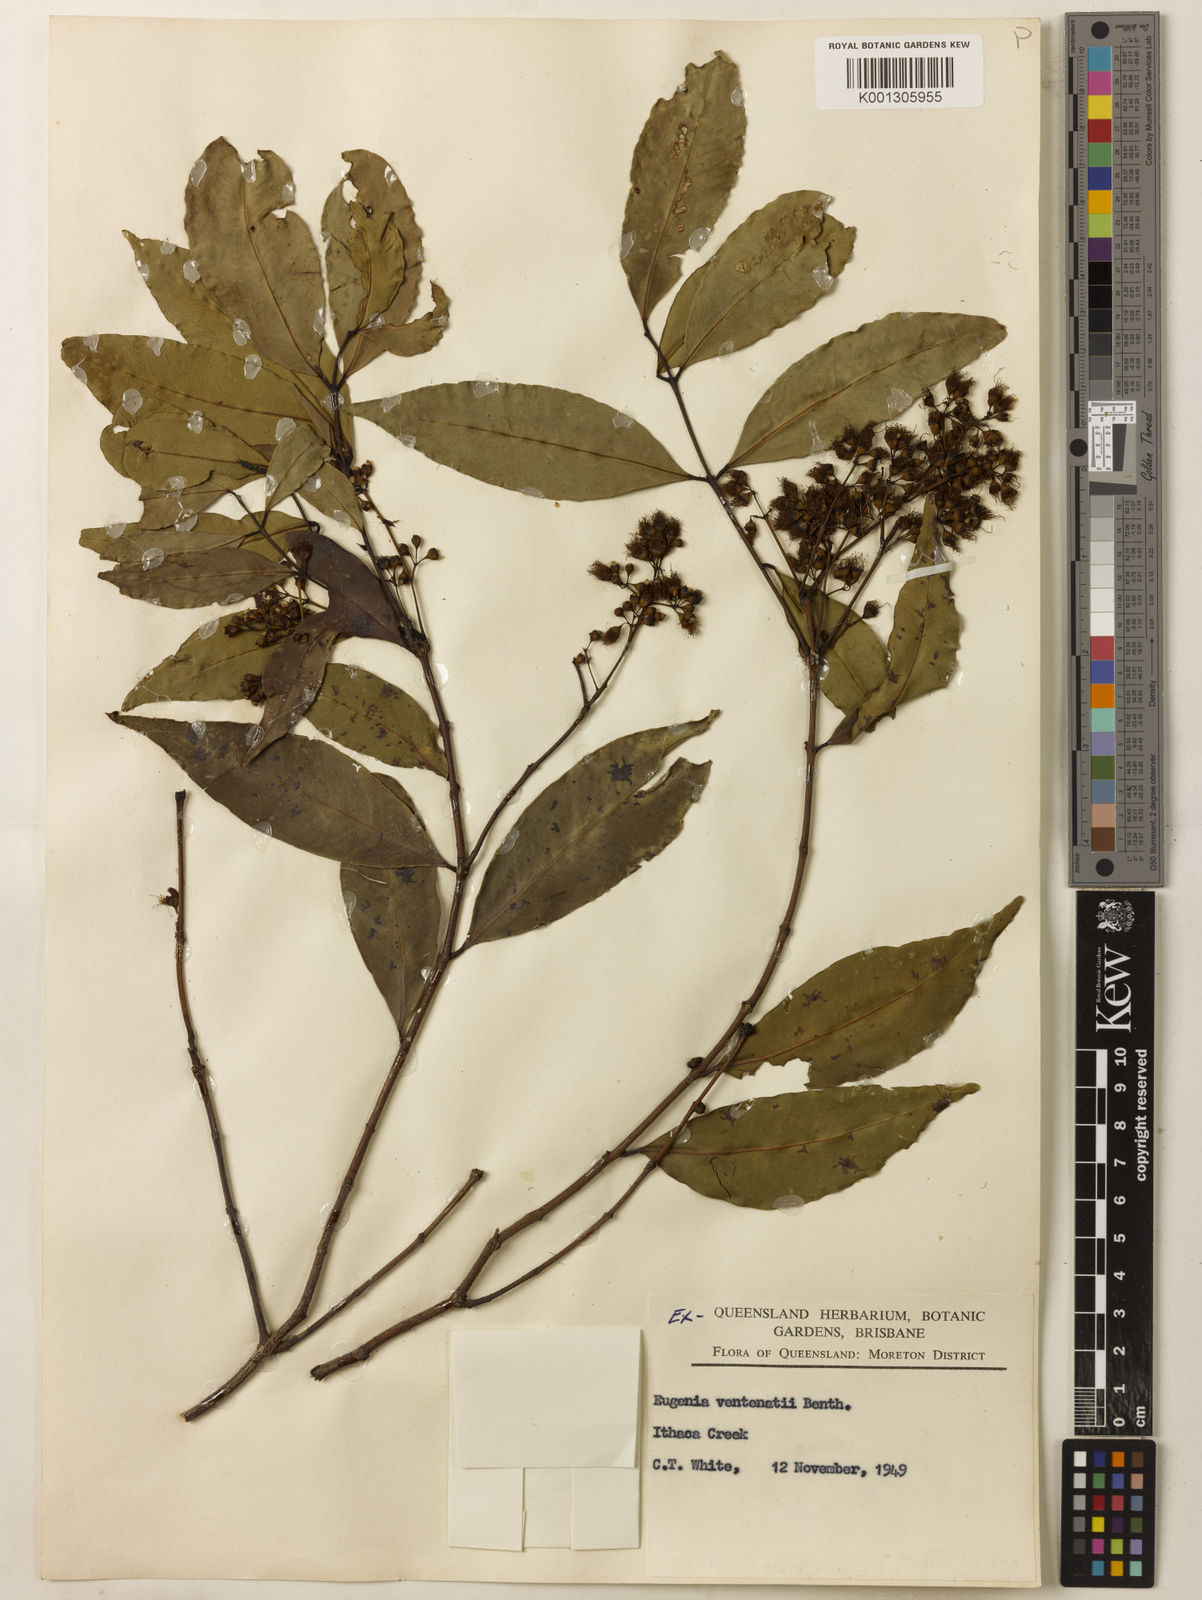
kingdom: Plantae
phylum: Tracheophyta
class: Magnoliopsida
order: Myrtales
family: Myrtaceae
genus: Syzygium
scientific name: Syzygium floribundum
